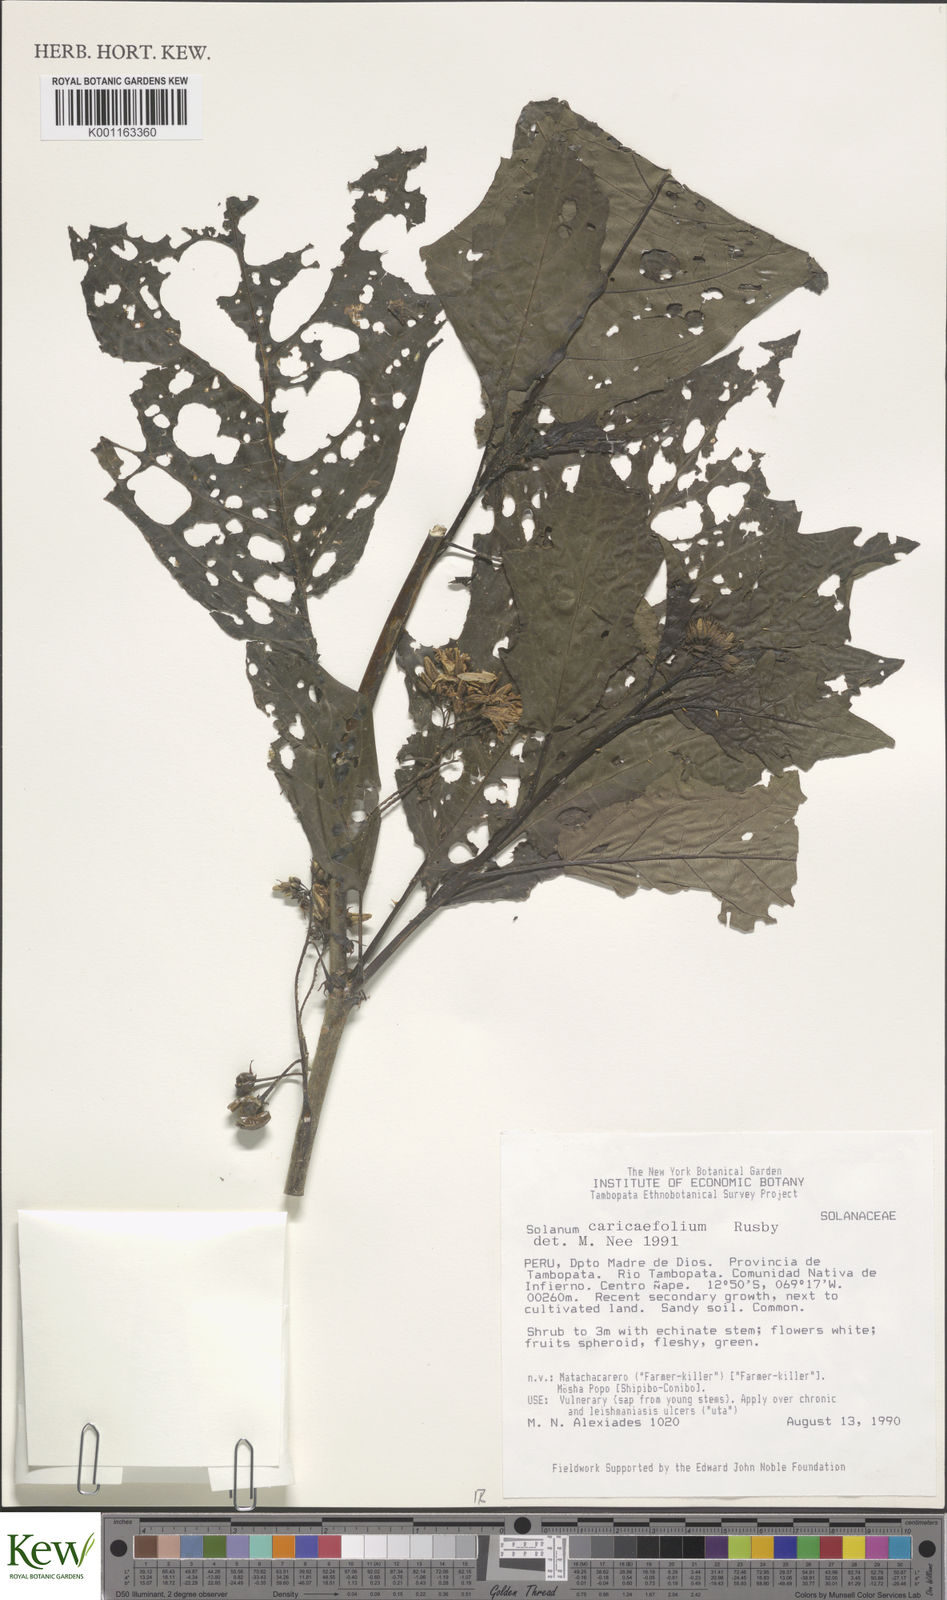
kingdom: Plantae
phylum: Tracheophyta
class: Magnoliopsida
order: Solanales
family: Solanaceae
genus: Solanum
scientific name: Solanum caricaefolium
